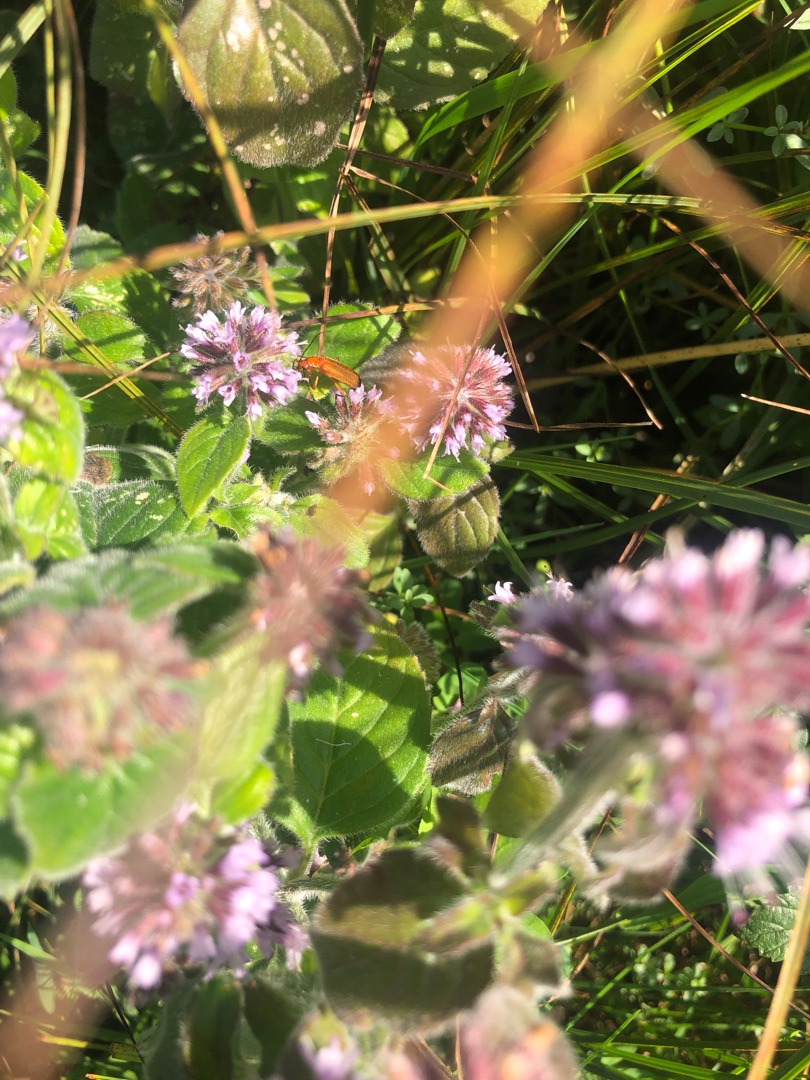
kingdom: Animalia
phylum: Arthropoda
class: Insecta
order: Coleoptera
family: Cantharidae
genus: Rhagonycha
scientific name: Rhagonycha fulva
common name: Præstebille
